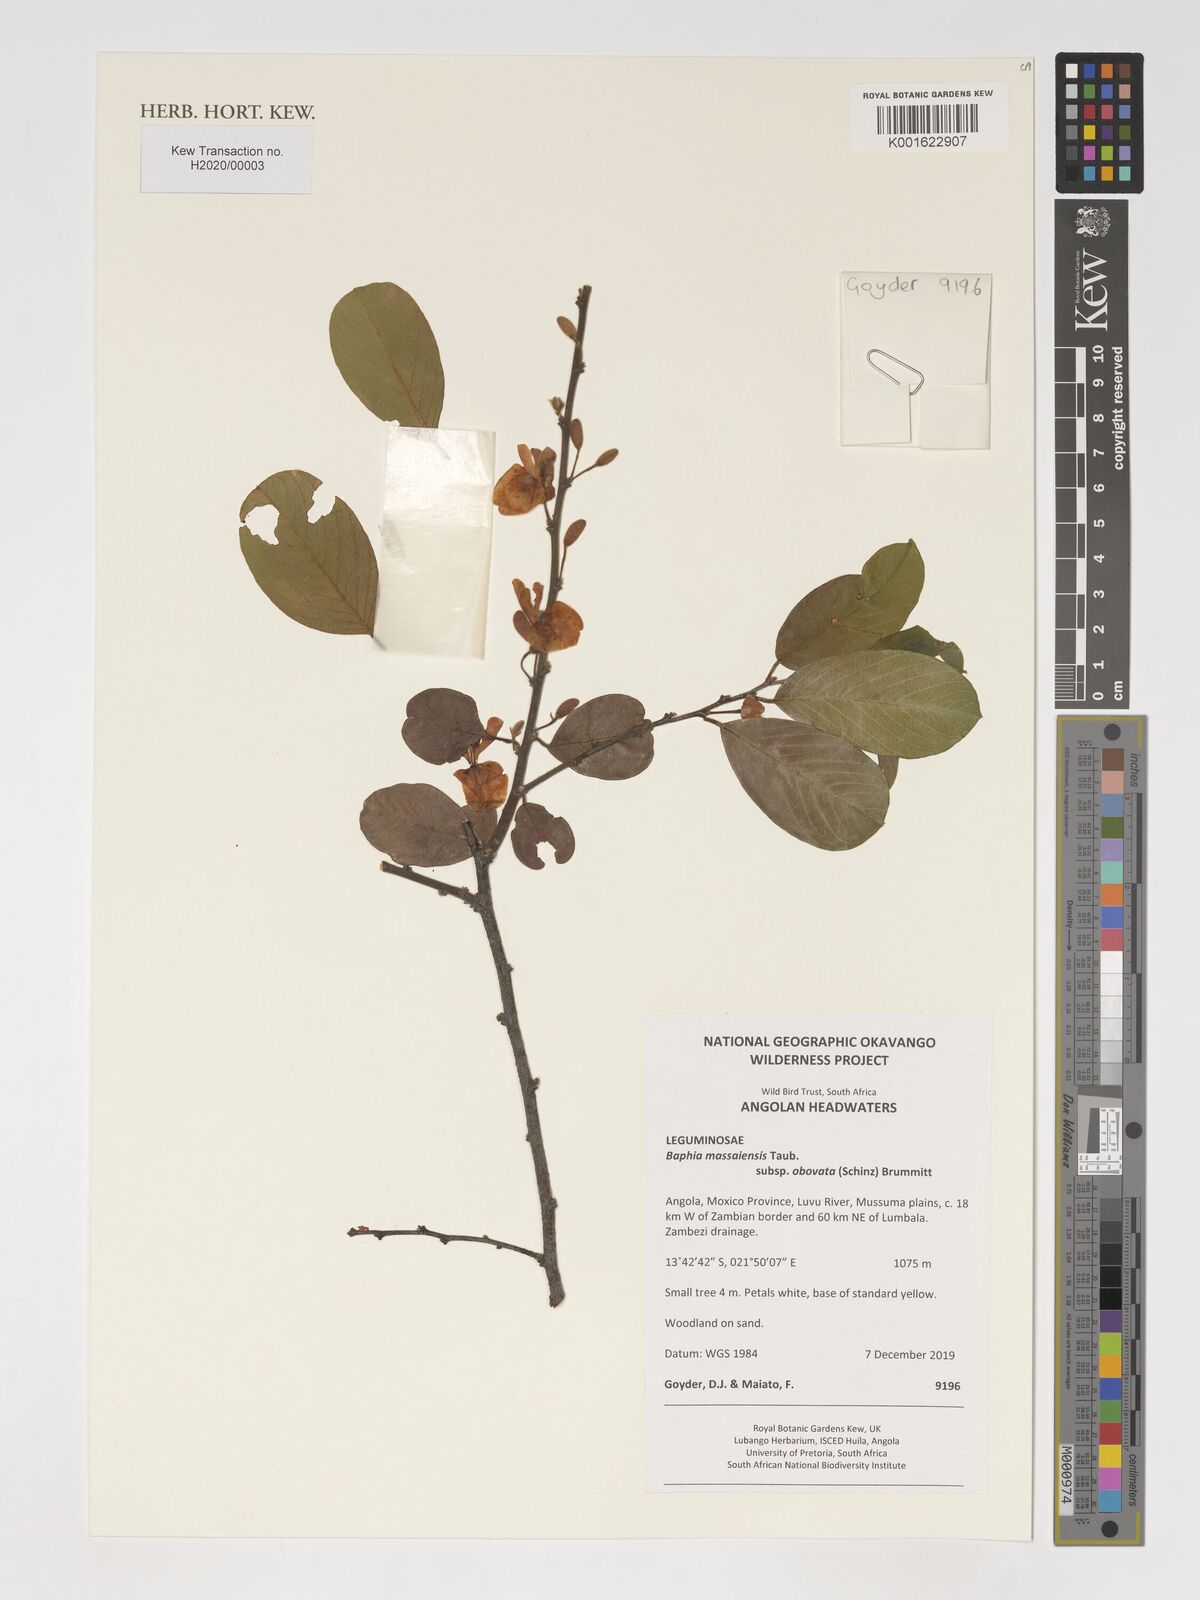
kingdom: Plantae
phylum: Tracheophyta
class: Magnoliopsida
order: Fabales
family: Fabaceae
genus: Baphia
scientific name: Baphia massaiensis
